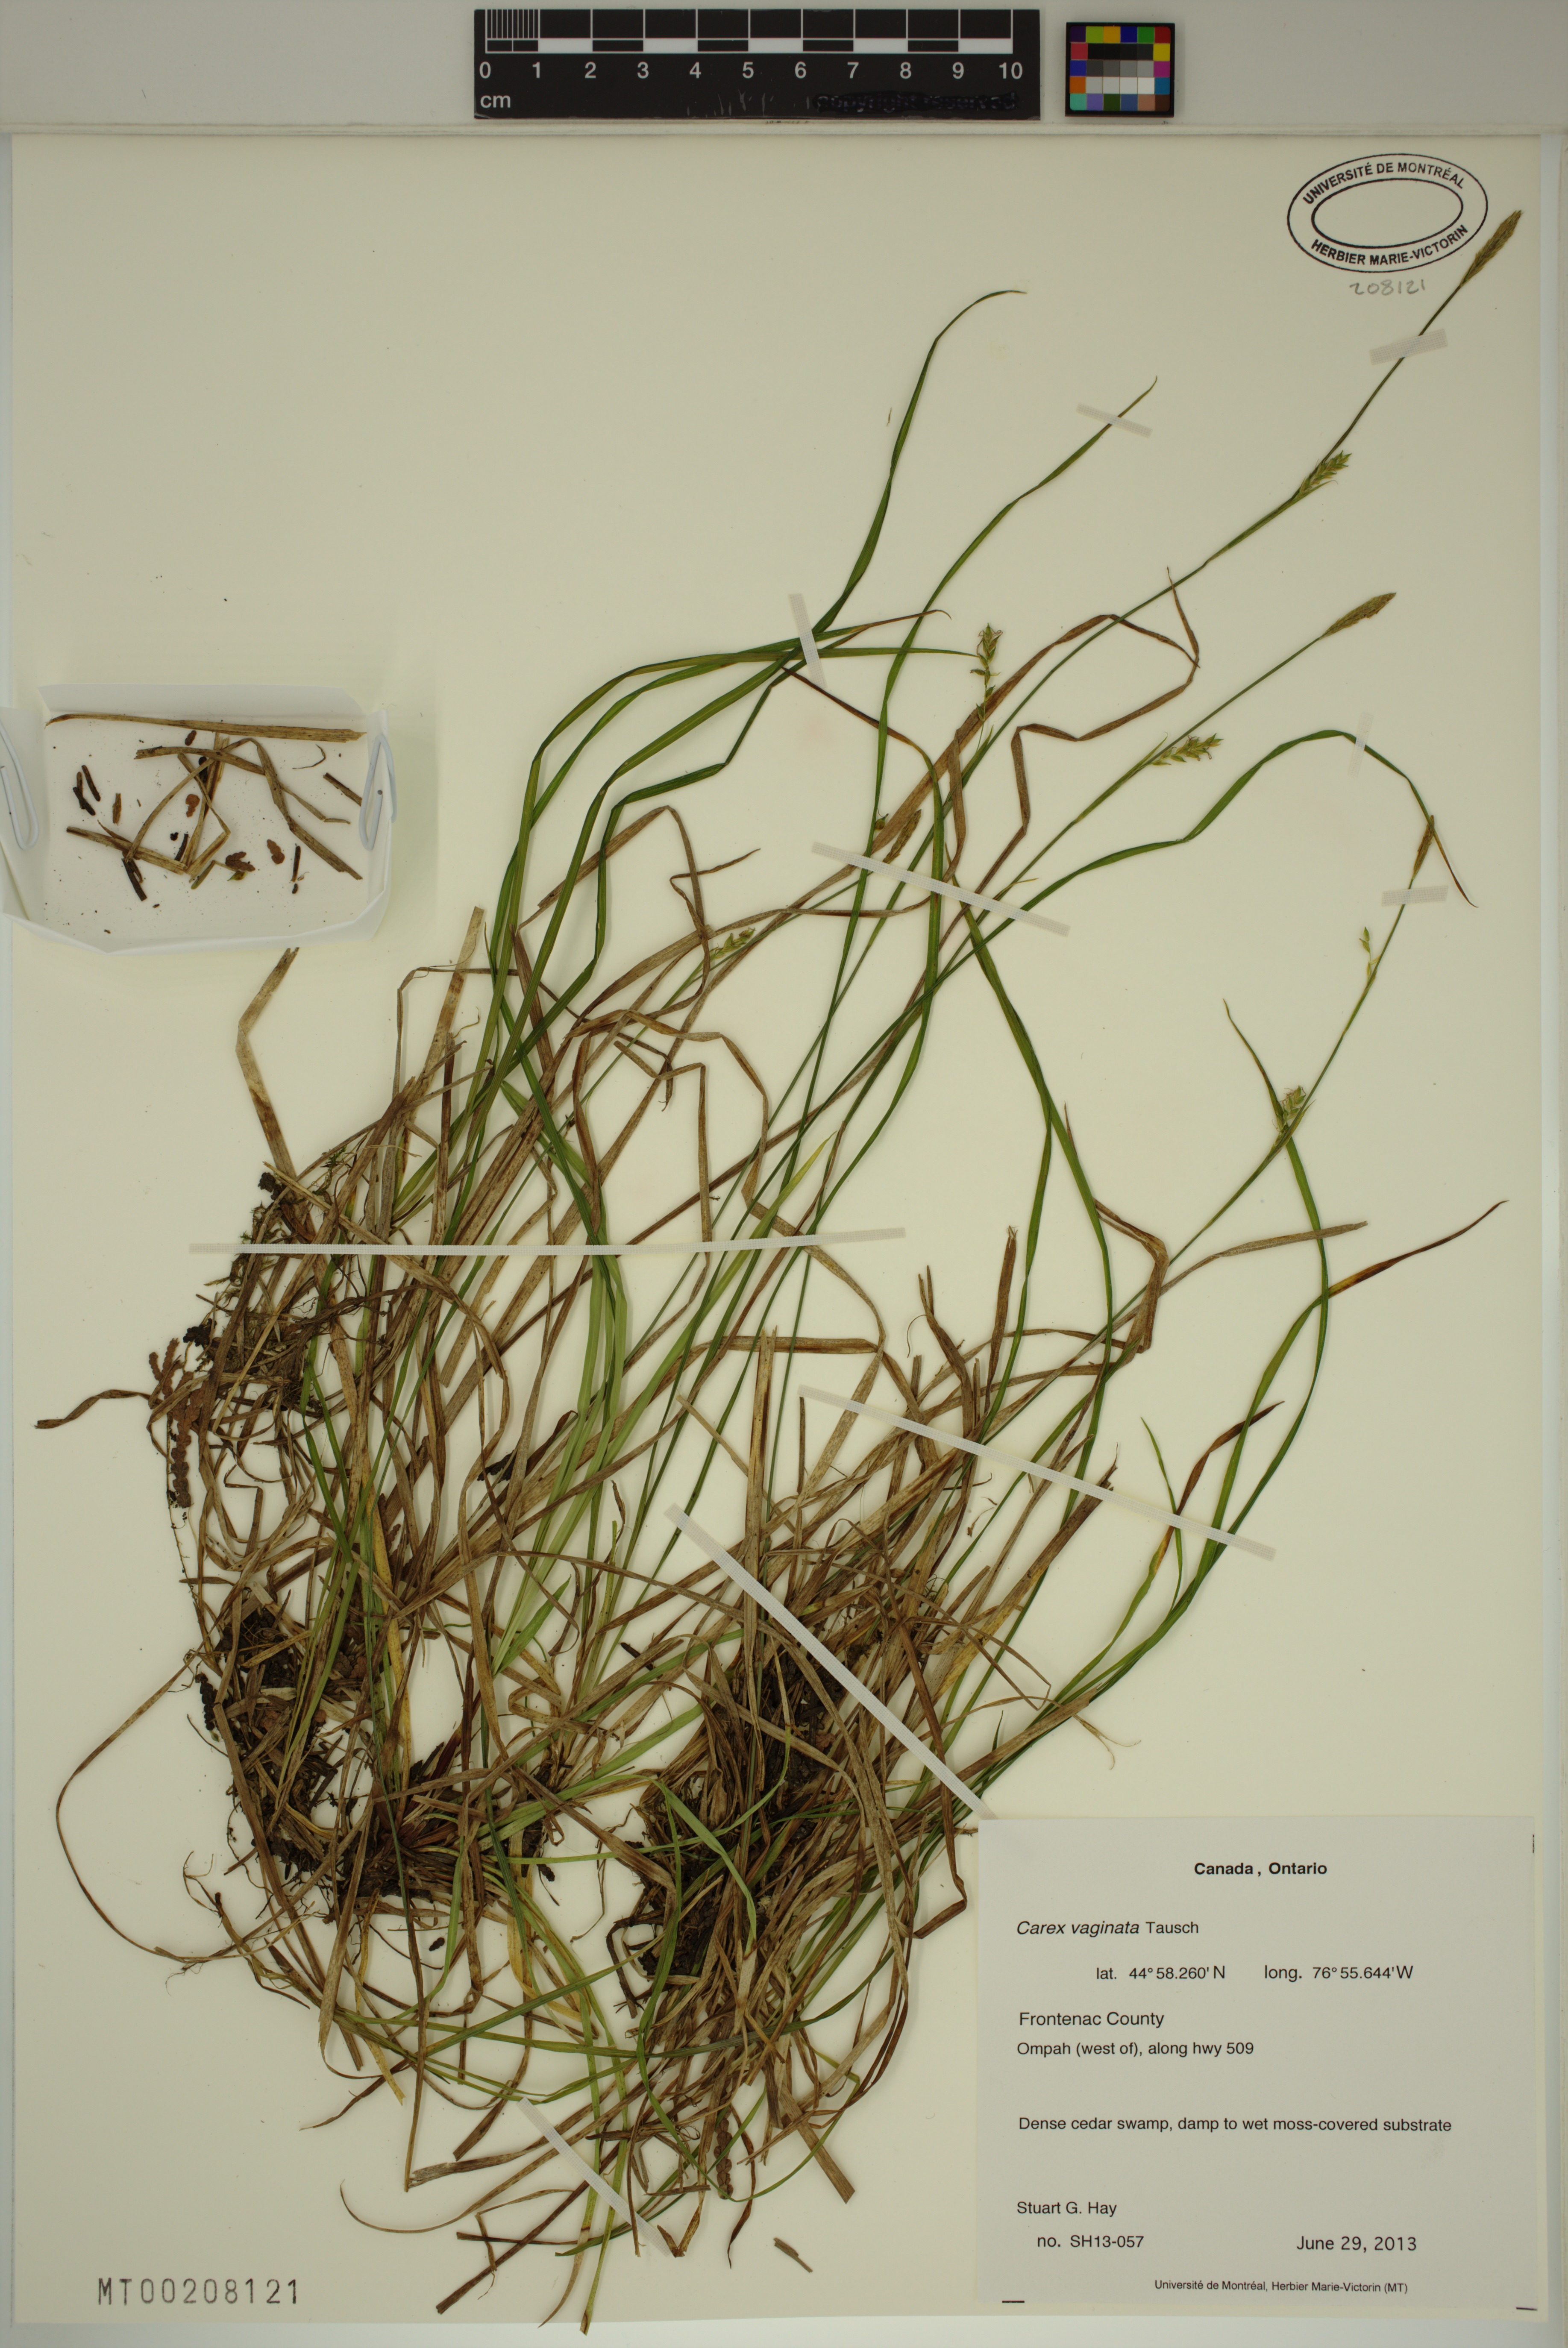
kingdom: Plantae
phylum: Tracheophyta
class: Liliopsida
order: Poales
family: Cyperaceae
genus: Carex
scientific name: Carex vaginata
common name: Sheathed sedge
